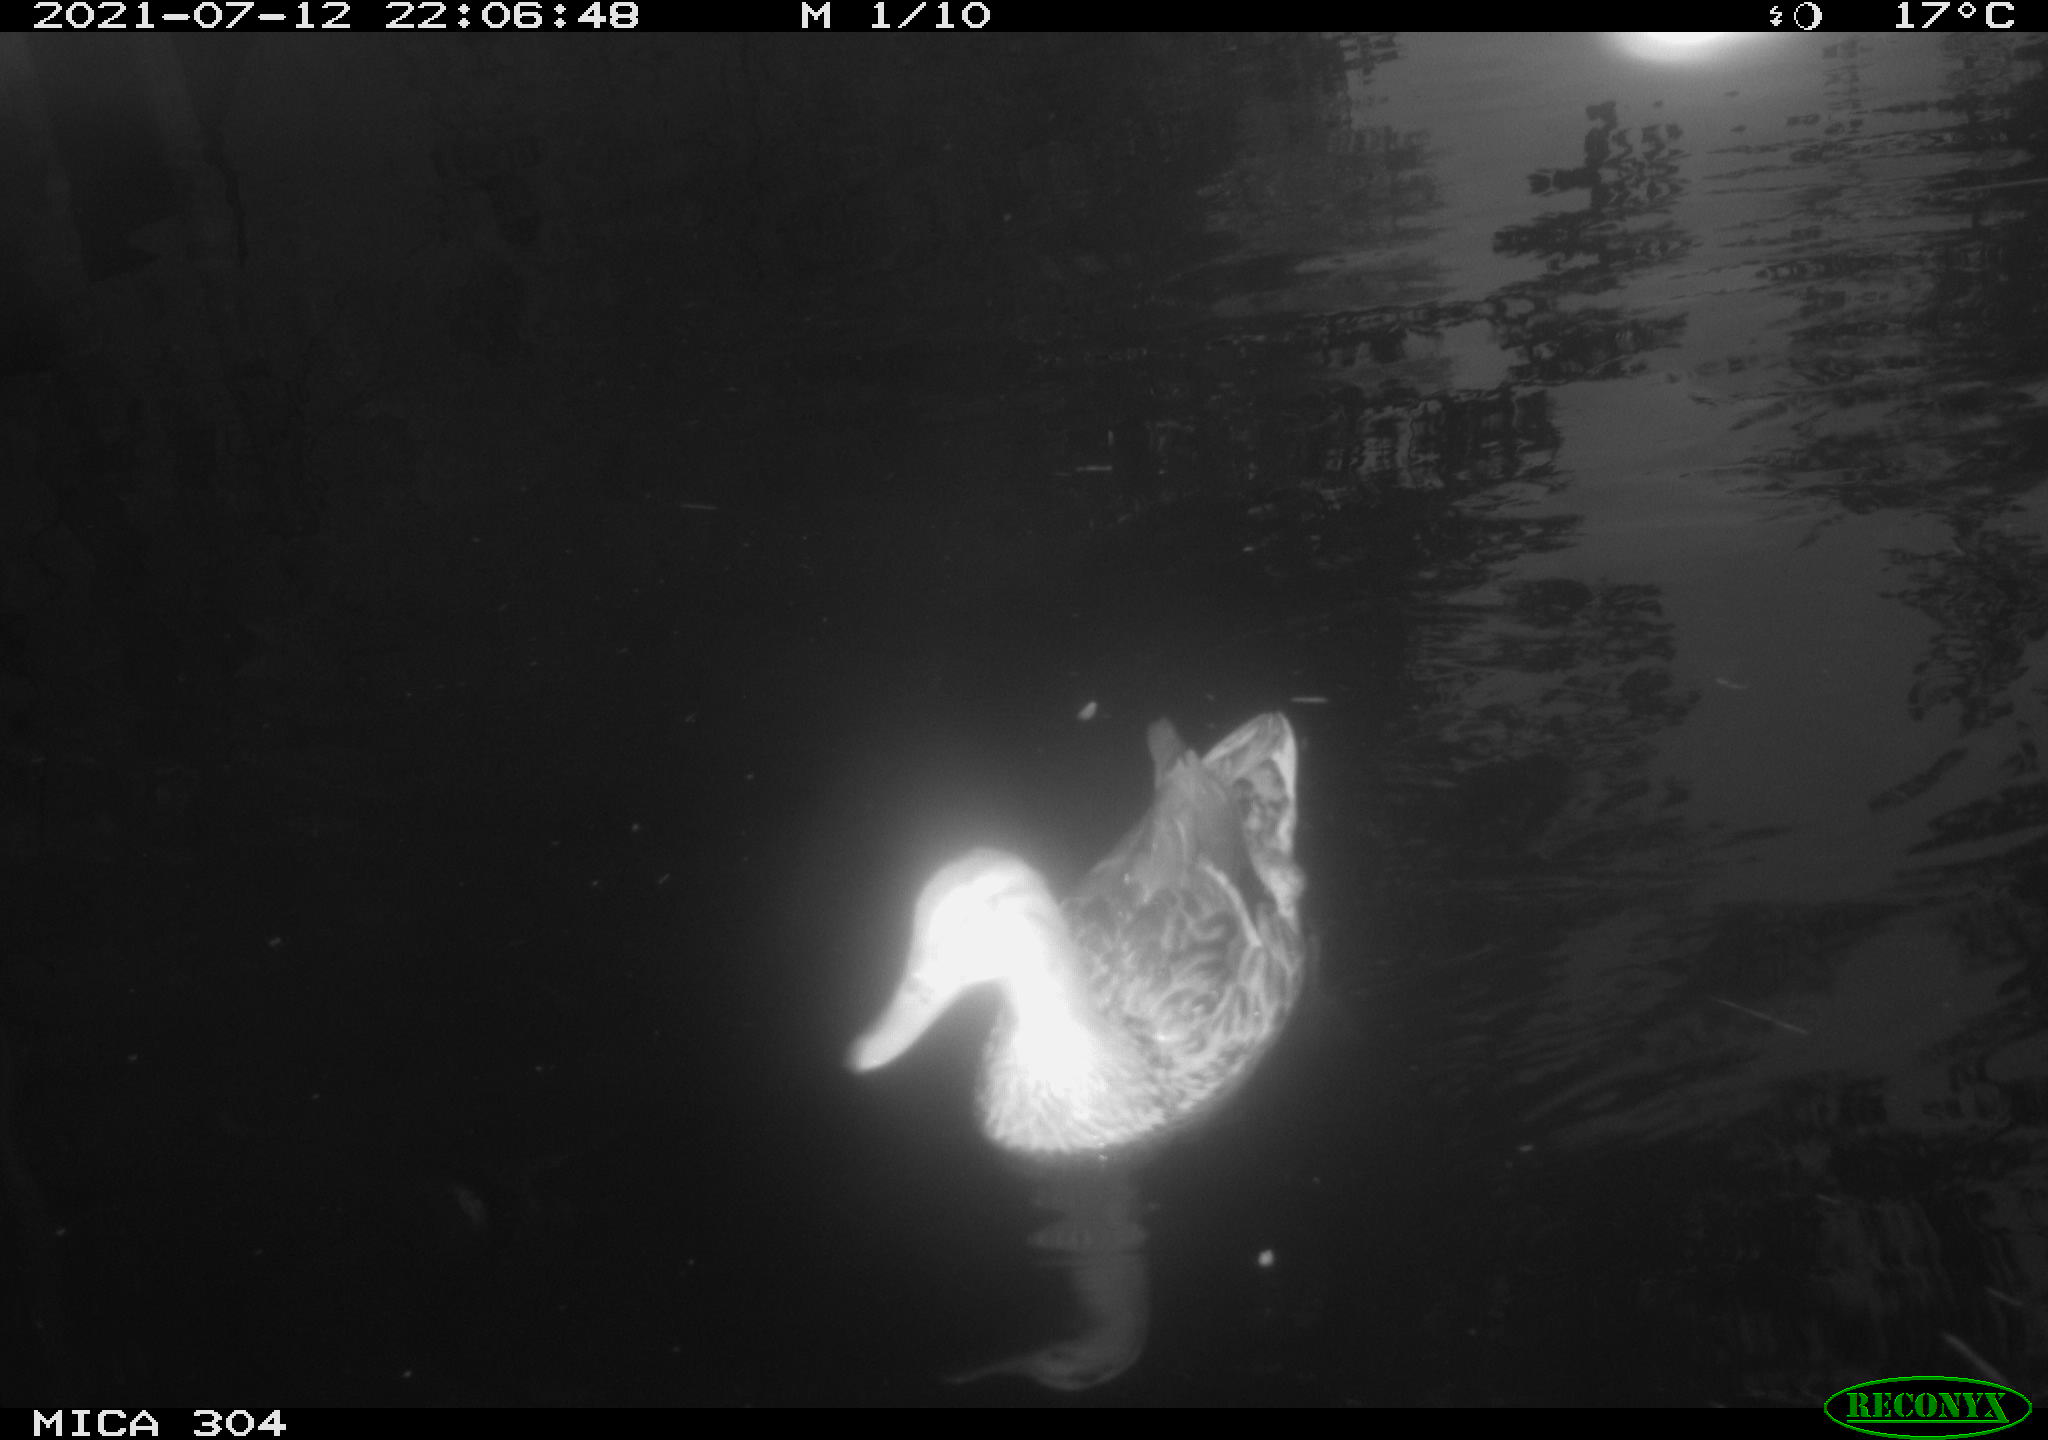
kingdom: Animalia
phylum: Chordata
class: Aves
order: Anseriformes
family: Anatidae
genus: Mareca
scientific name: Mareca strepera
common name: Gadwall
